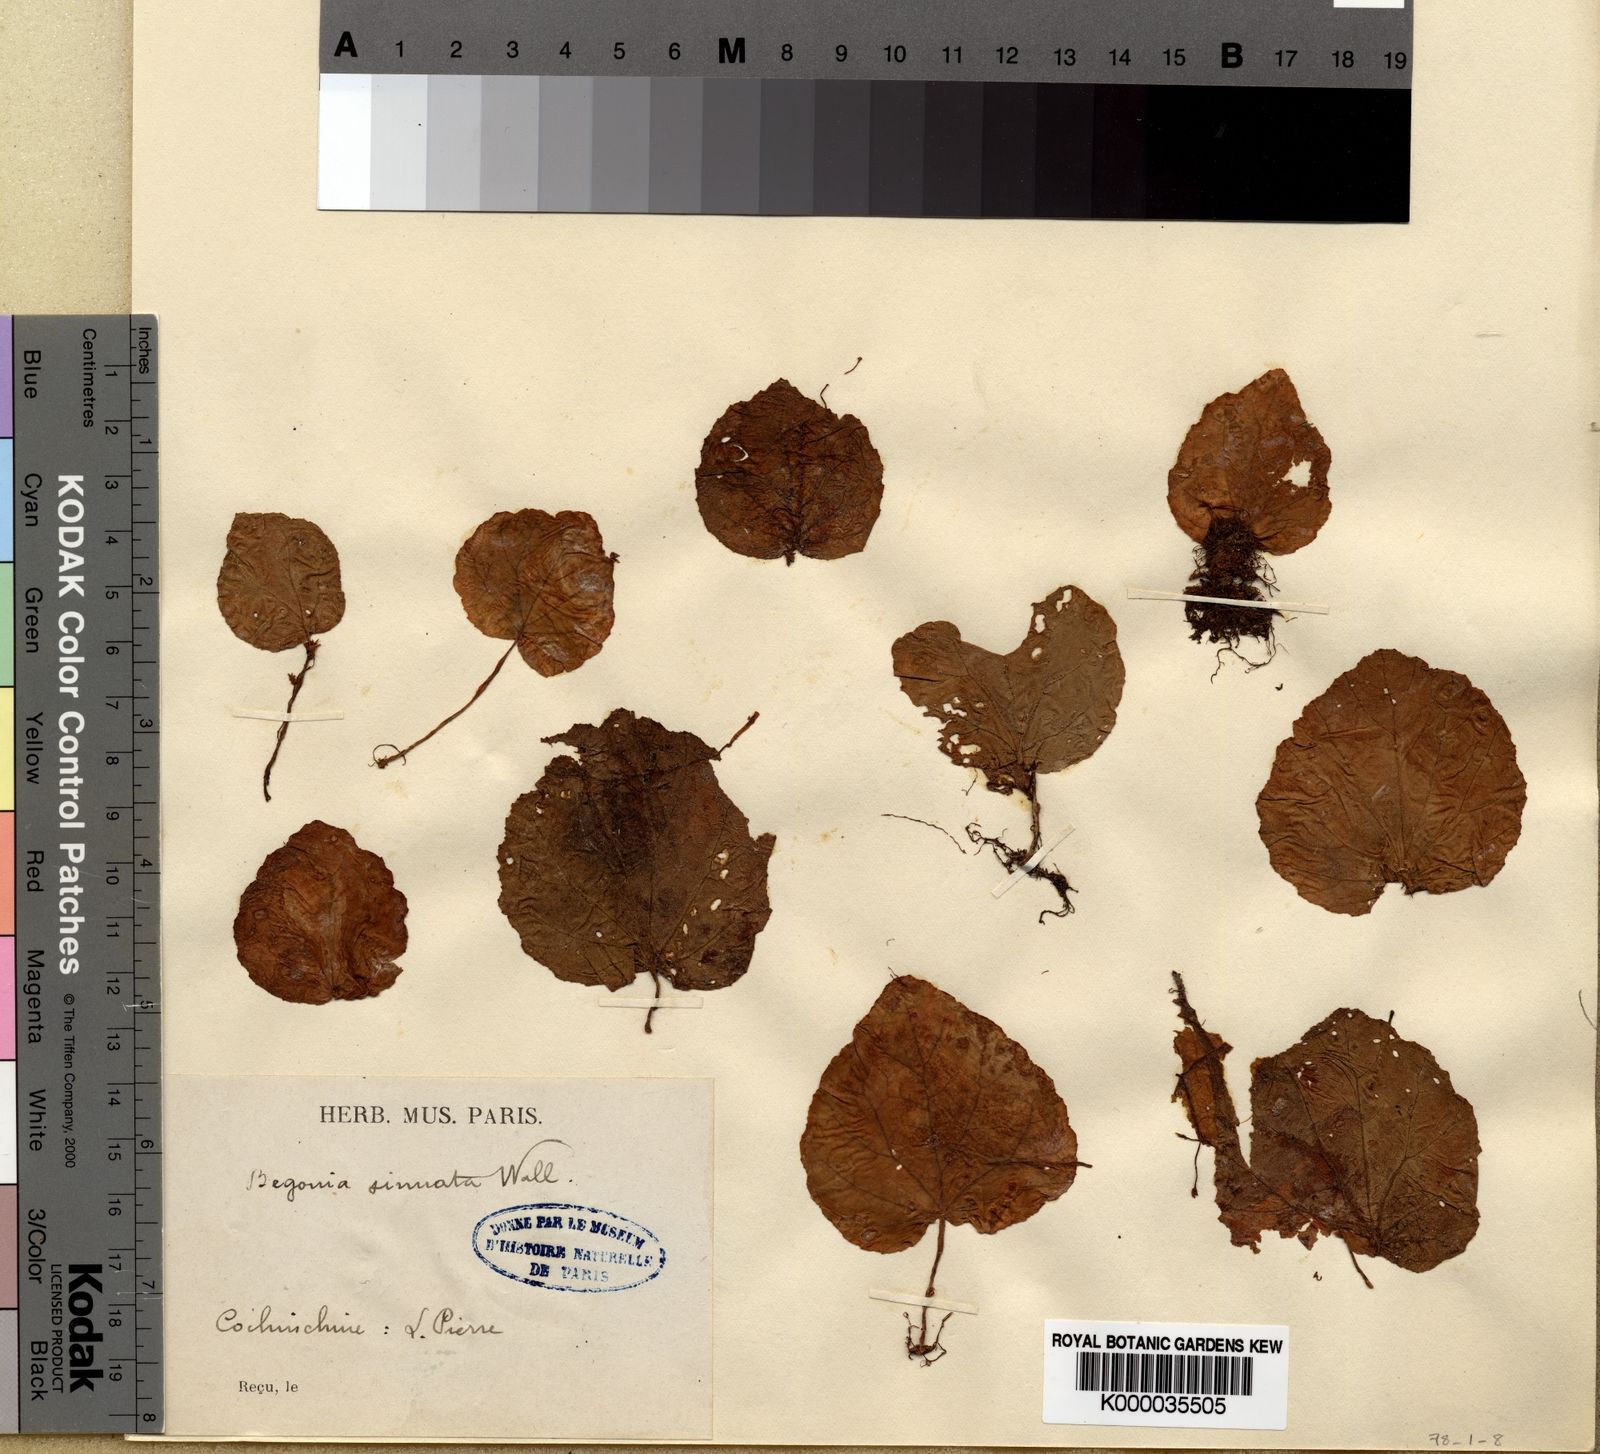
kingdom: Plantae
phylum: Tracheophyta
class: Magnoliopsida
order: Cucurbitales
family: Begoniaceae
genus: Begonia
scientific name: Begonia
